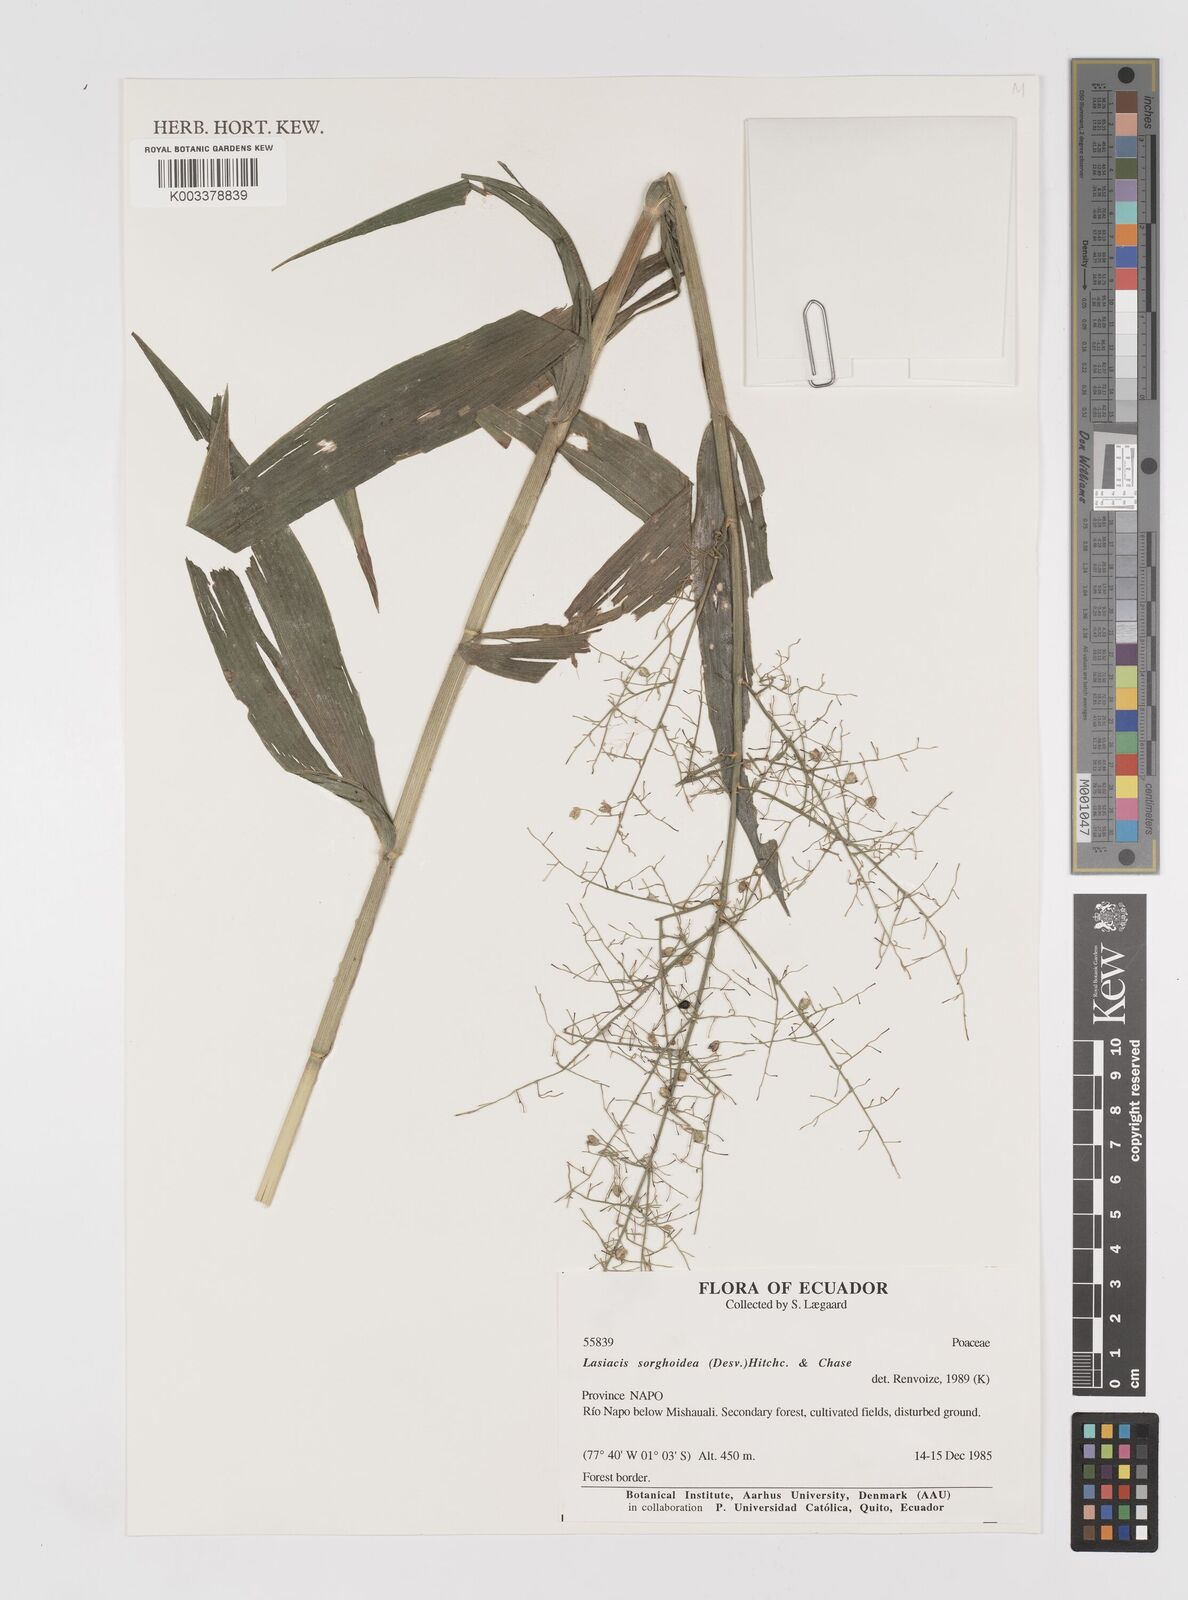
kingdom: Plantae
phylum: Tracheophyta
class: Liliopsida
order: Poales
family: Poaceae
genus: Lasiacis
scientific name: Lasiacis maculata
